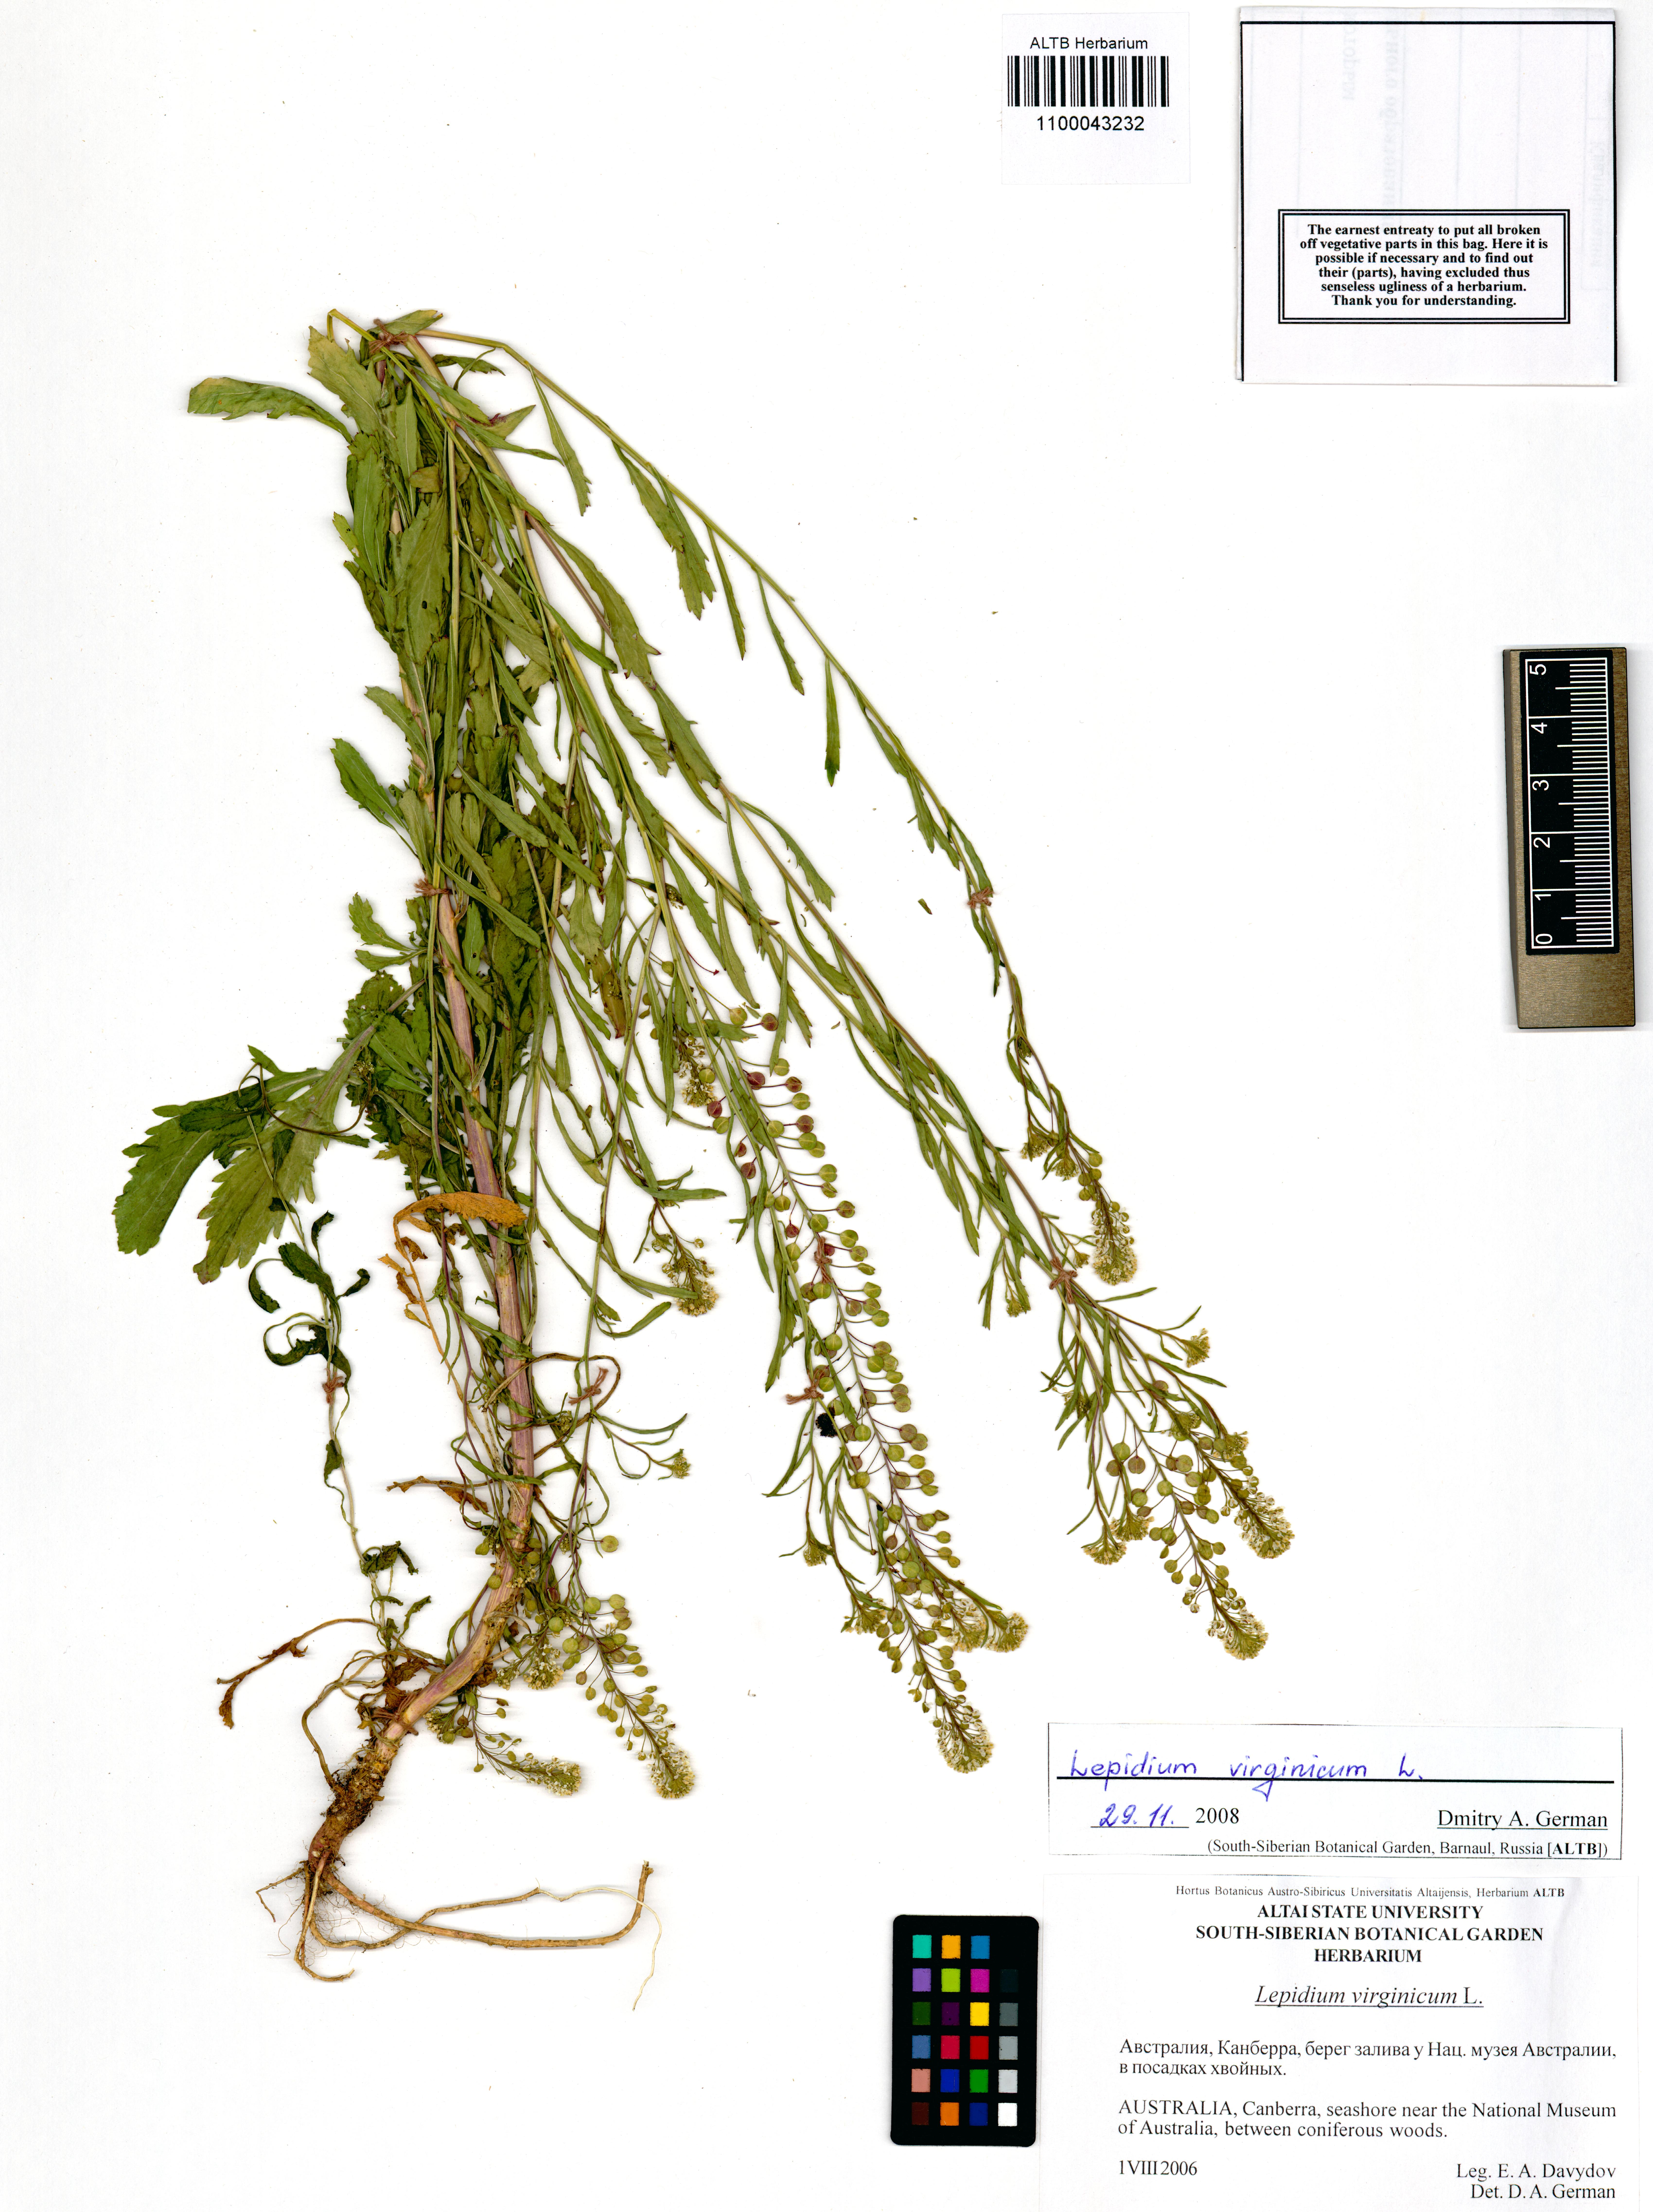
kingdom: Plantae
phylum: Tracheophyta
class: Magnoliopsida
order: Brassicales
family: Brassicaceae
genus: Lepidium
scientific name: Lepidium virginicum
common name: Least pepperwort
